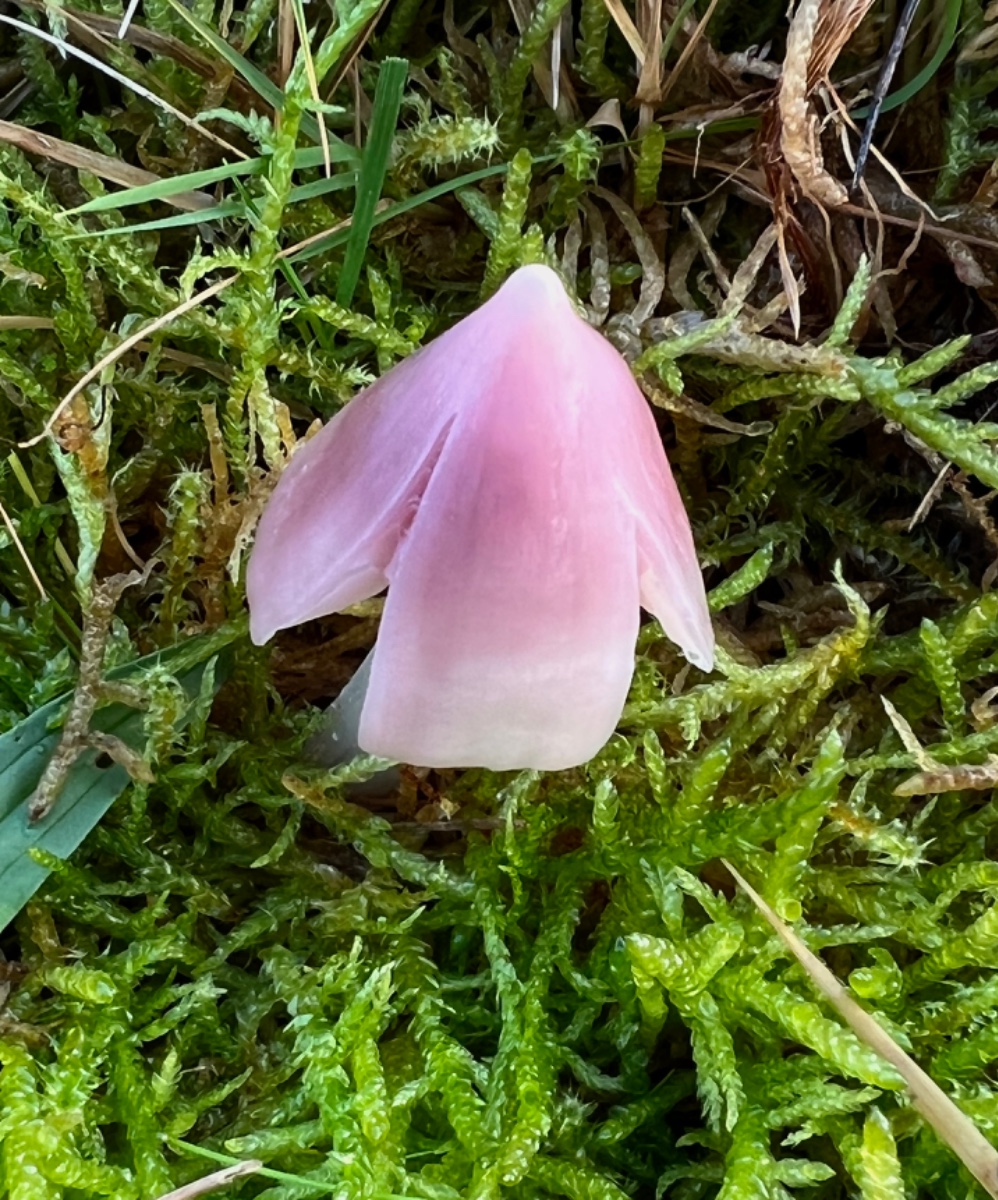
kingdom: Fungi
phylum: Basidiomycota
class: Agaricomycetes
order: Agaricales
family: Hygrophoraceae
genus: Porpolomopsis
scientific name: Porpolomopsis calyptriformis
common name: rosenrød vokshat
